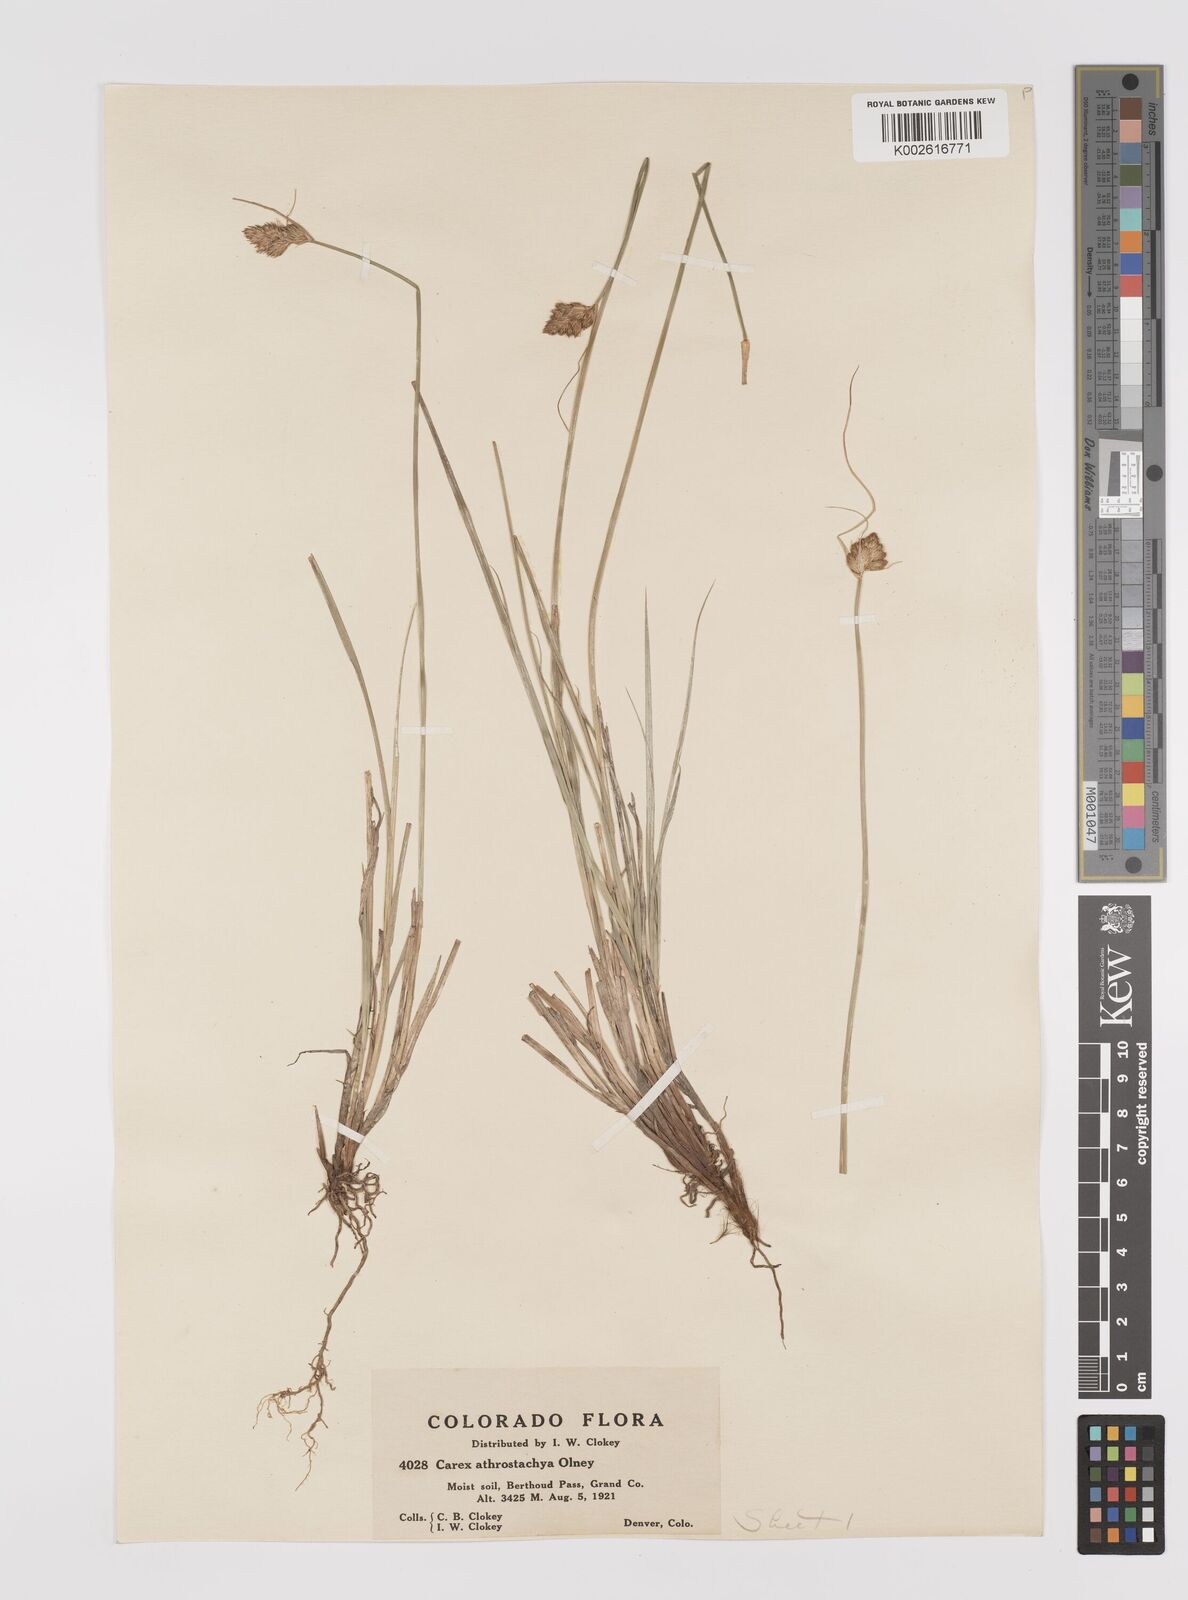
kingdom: Plantae
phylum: Tracheophyta
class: Liliopsida
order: Poales
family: Cyperaceae
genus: Carex
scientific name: Carex athrostachya
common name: Slenderbeak sedge
